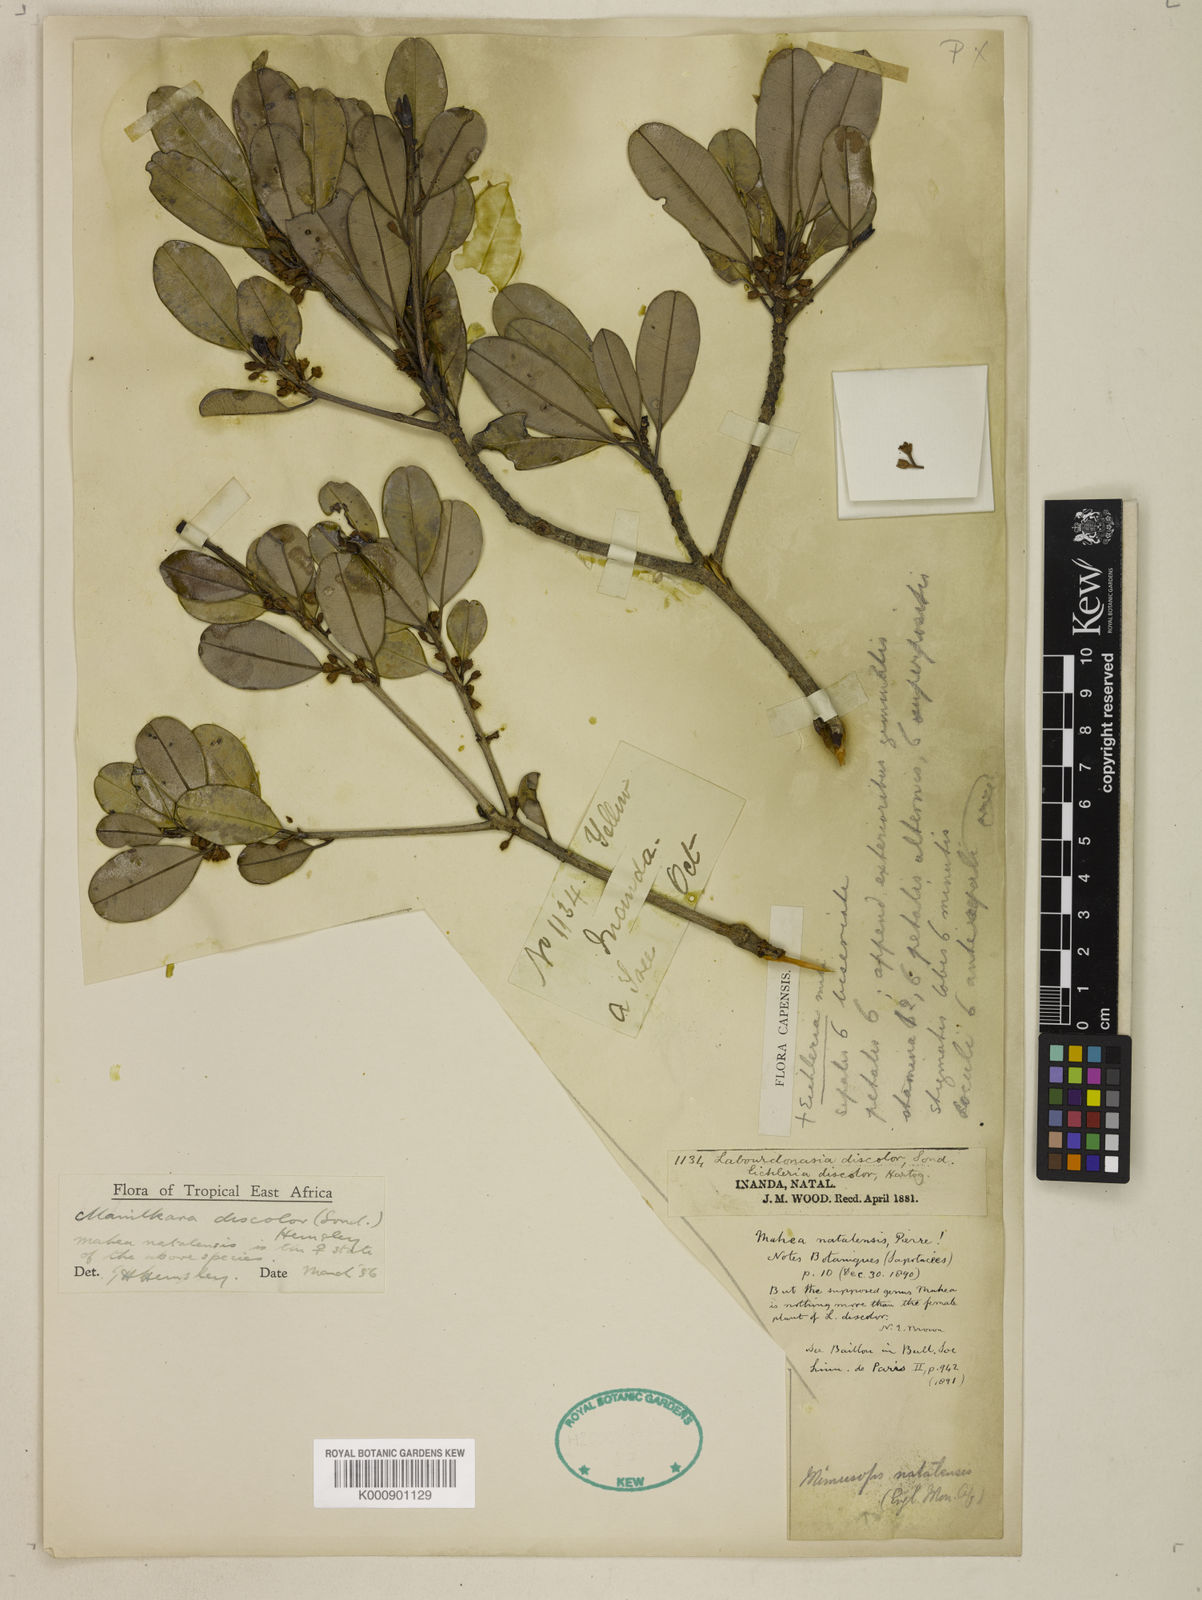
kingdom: Plantae
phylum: Tracheophyta
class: Magnoliopsida
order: Ericales
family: Sapotaceae
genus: Manilkara
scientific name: Manilkara discolor
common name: Forest milkberry
